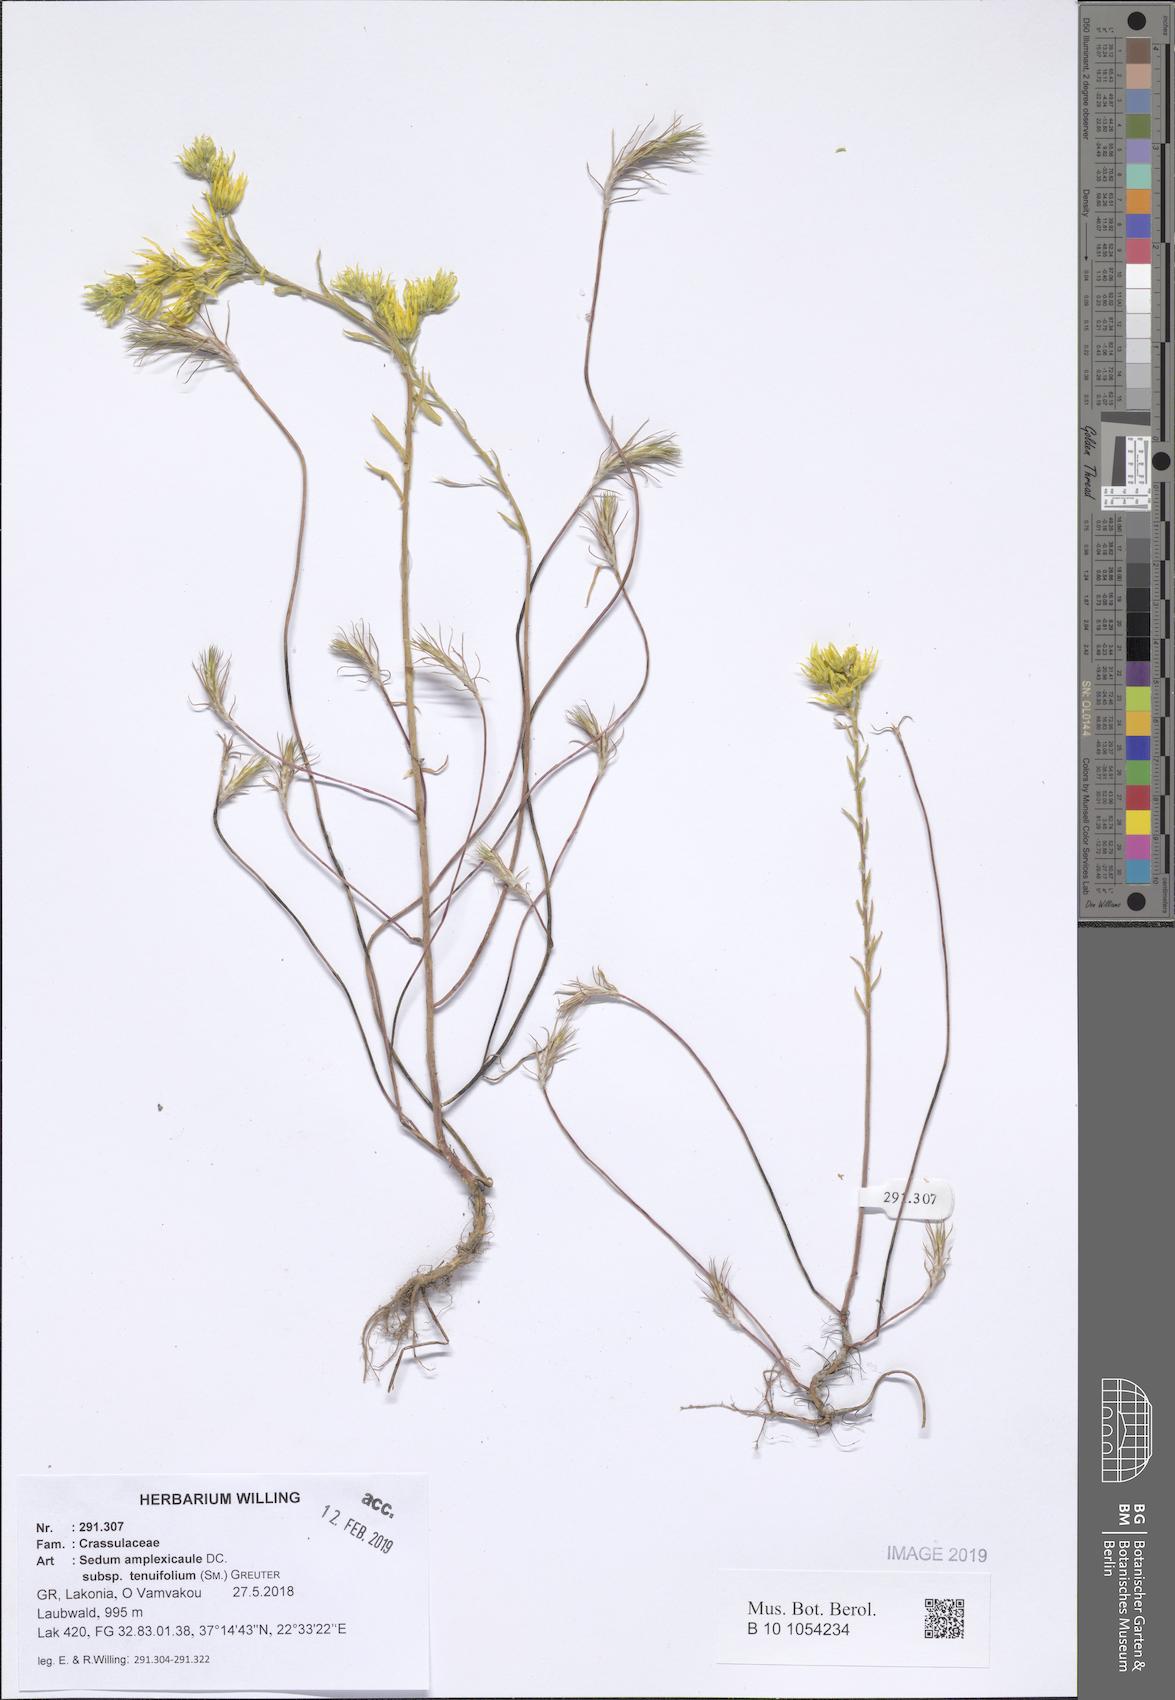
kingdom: Plantae
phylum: Tracheophyta
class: Magnoliopsida
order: Saxifragales
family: Crassulaceae
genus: Petrosedum
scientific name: Petrosedum tenuifolium
